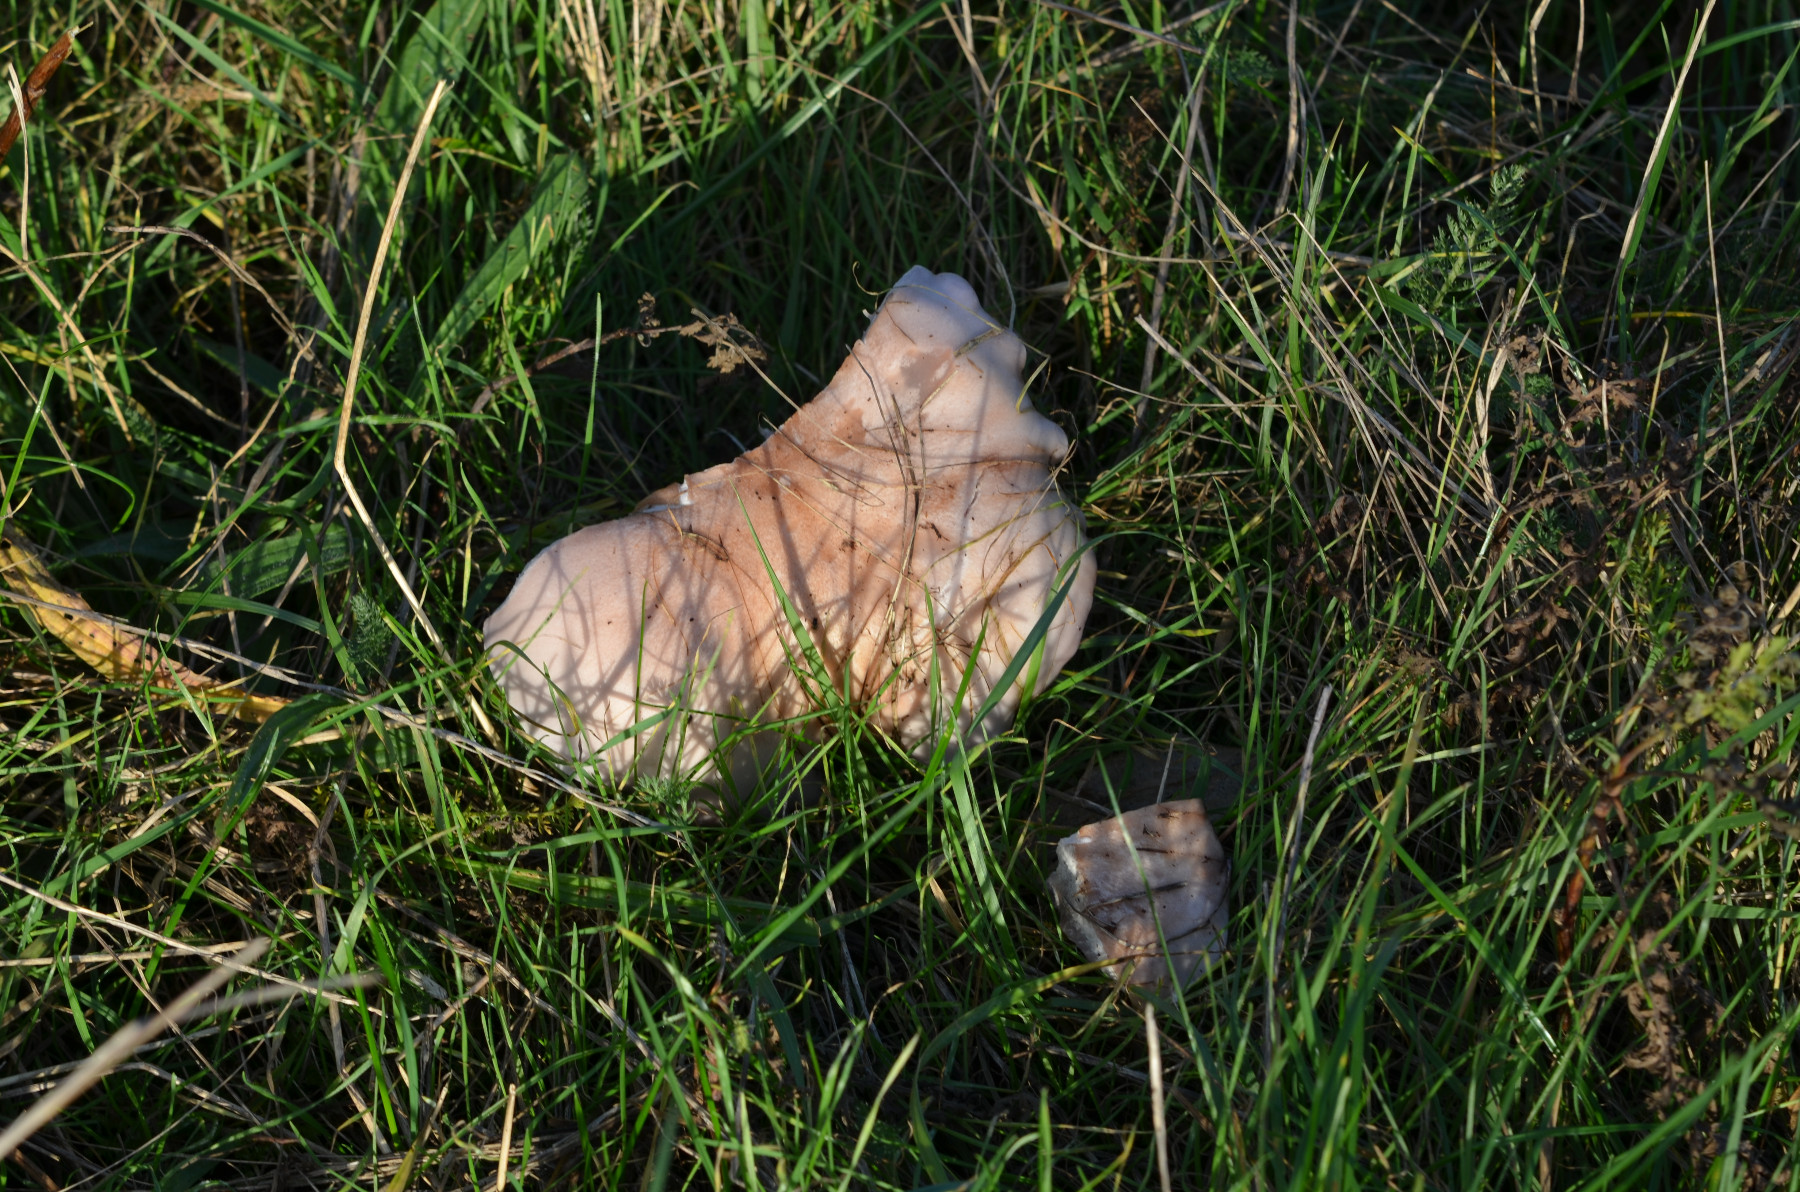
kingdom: Fungi
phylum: Basidiomycota
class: Agaricomycetes
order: Agaricales
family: Tricholomataceae
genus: Lepista
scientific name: Lepista nuda
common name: violet hekseringshat
